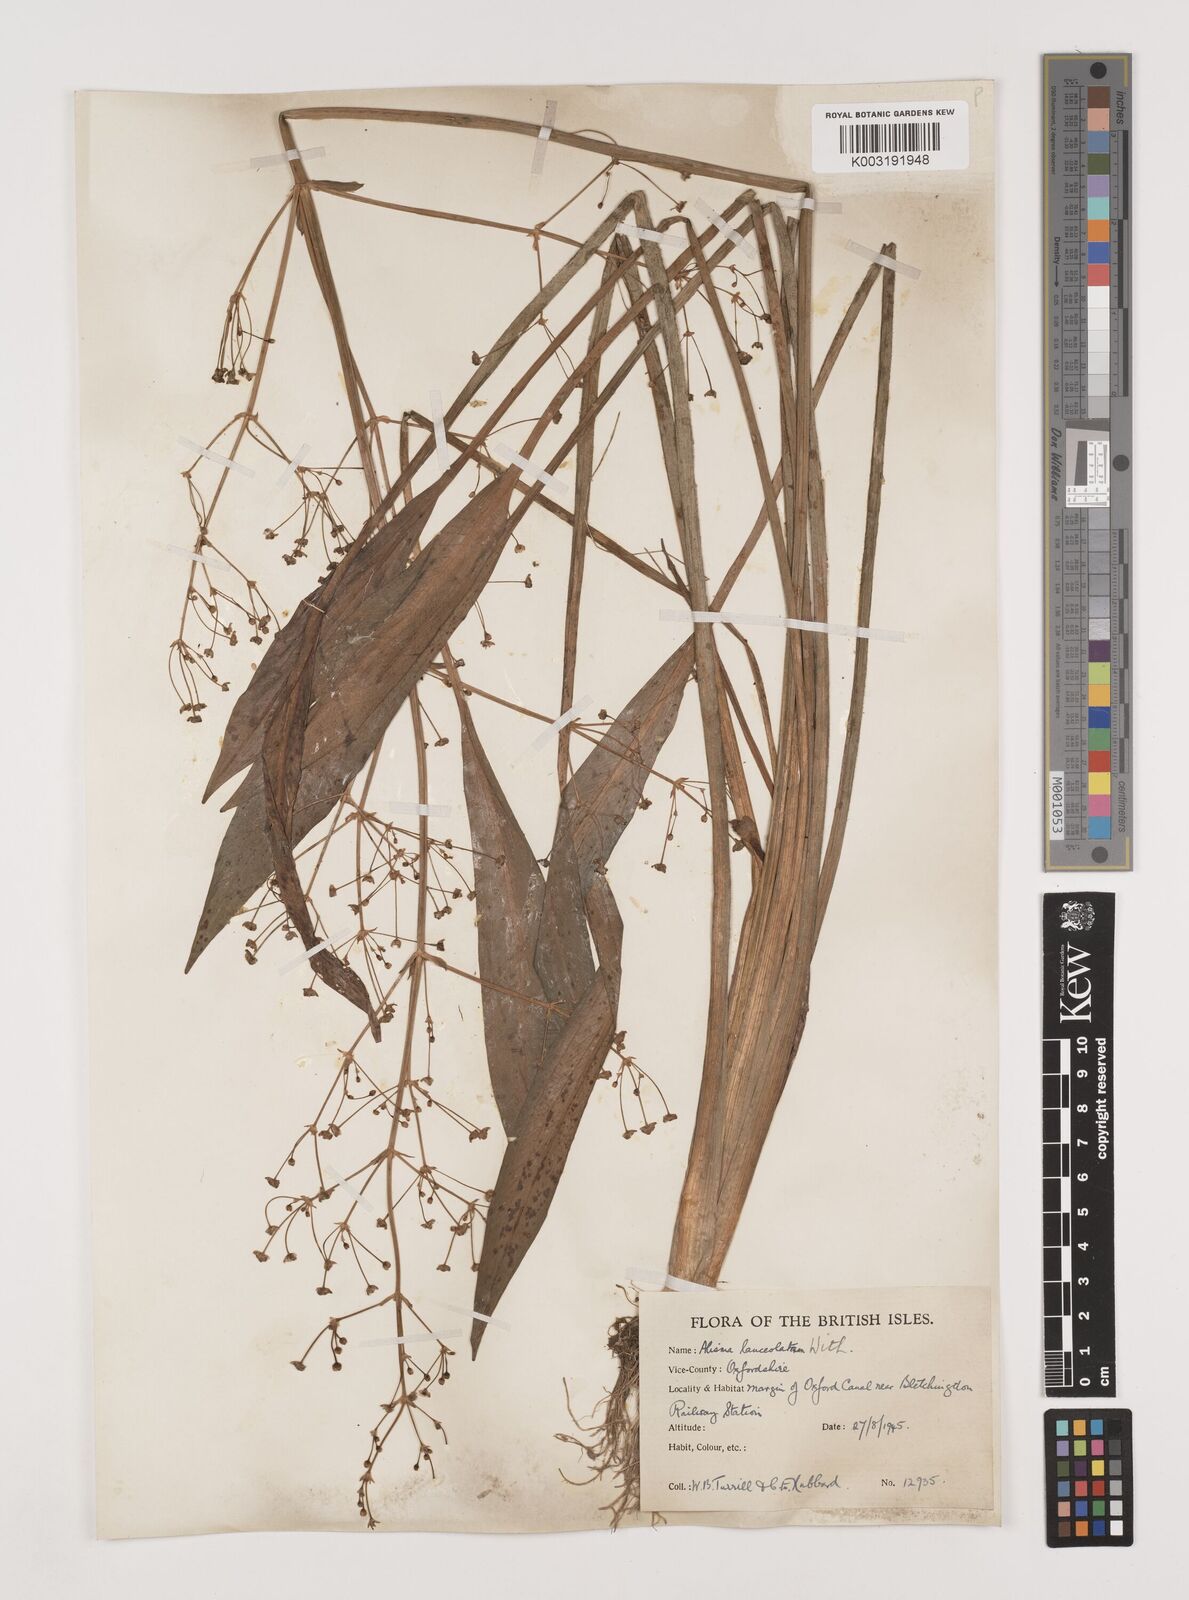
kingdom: Plantae
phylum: Tracheophyta
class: Liliopsida
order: Alismatales
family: Alismataceae
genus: Alisma
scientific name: Alisma lanceolatum
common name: Narrow-leaved water-plantain
